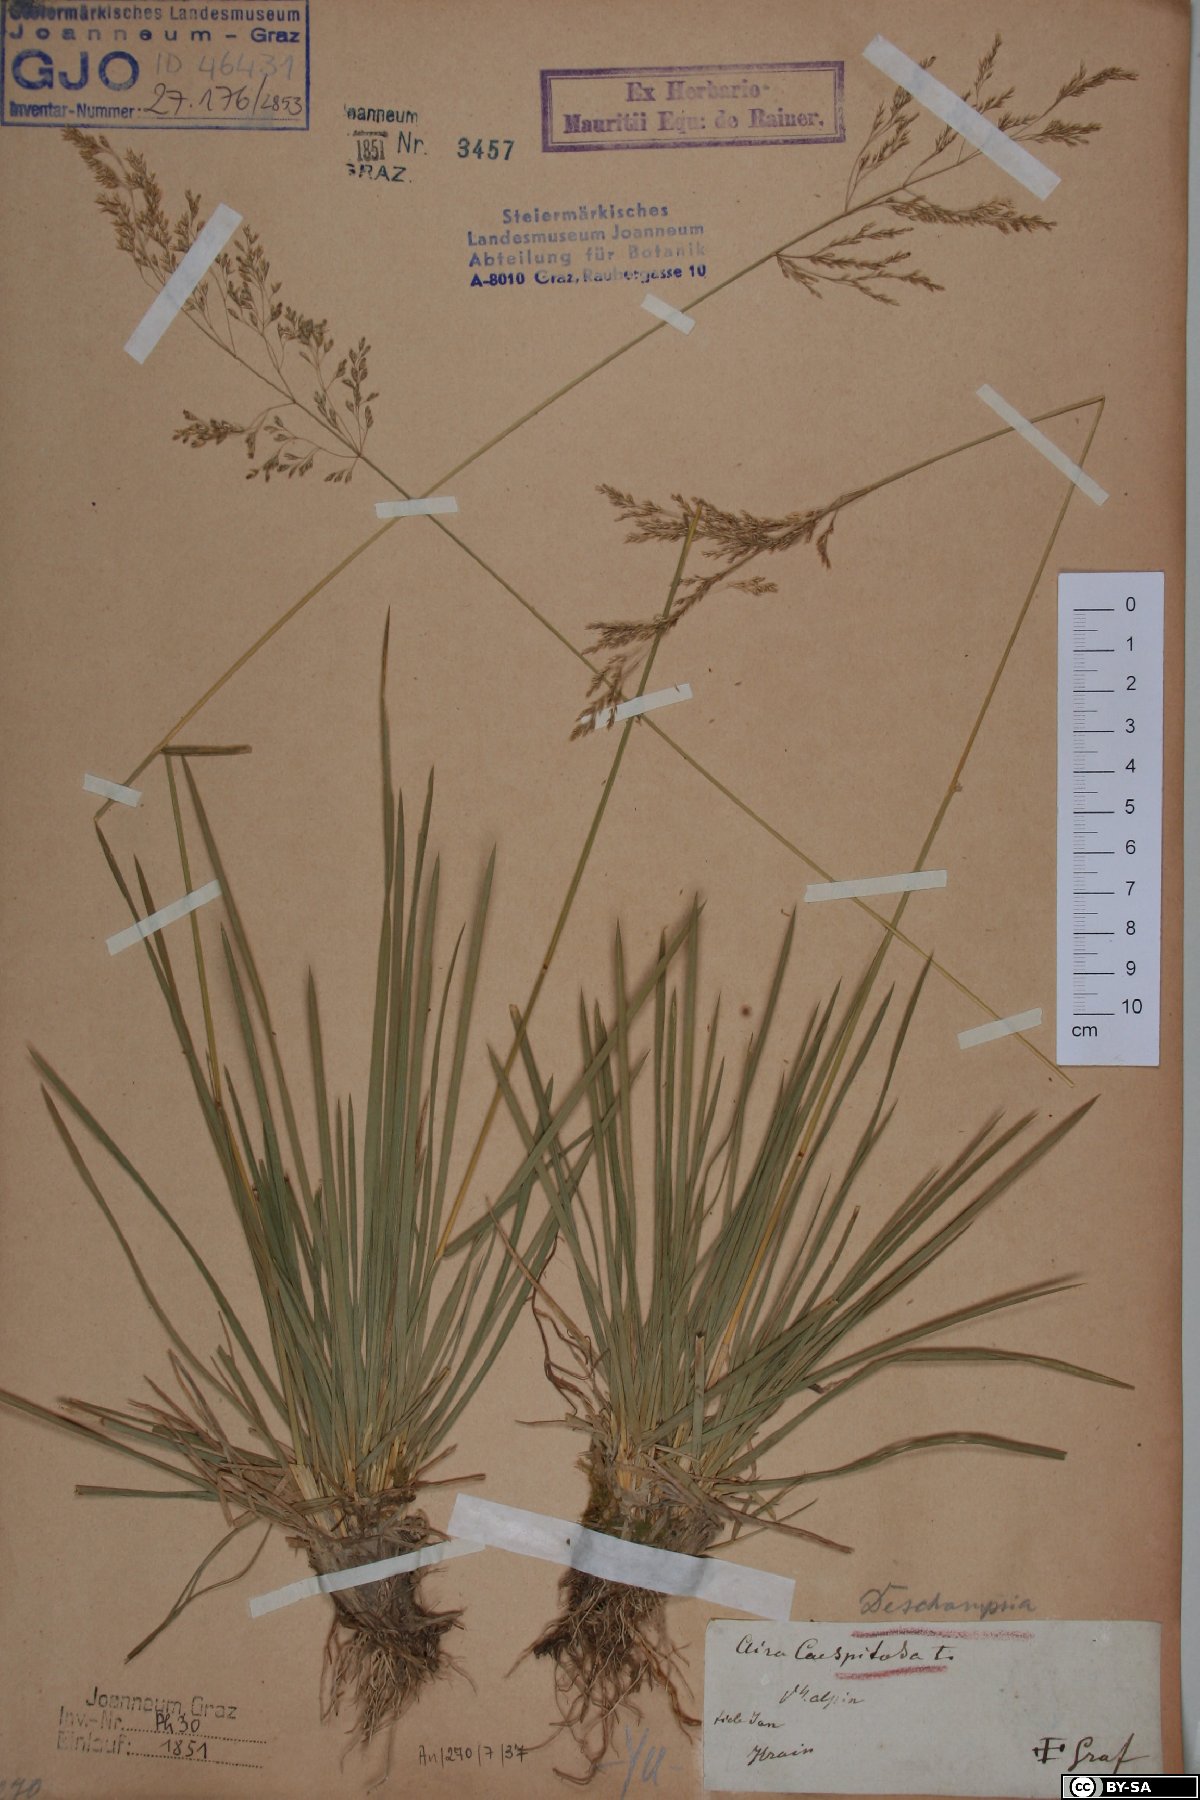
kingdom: Plantae
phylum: Tracheophyta
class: Liliopsida
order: Poales
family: Poaceae
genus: Deschampsia
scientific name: Deschampsia cespitosa
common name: Tufted hair-grass
